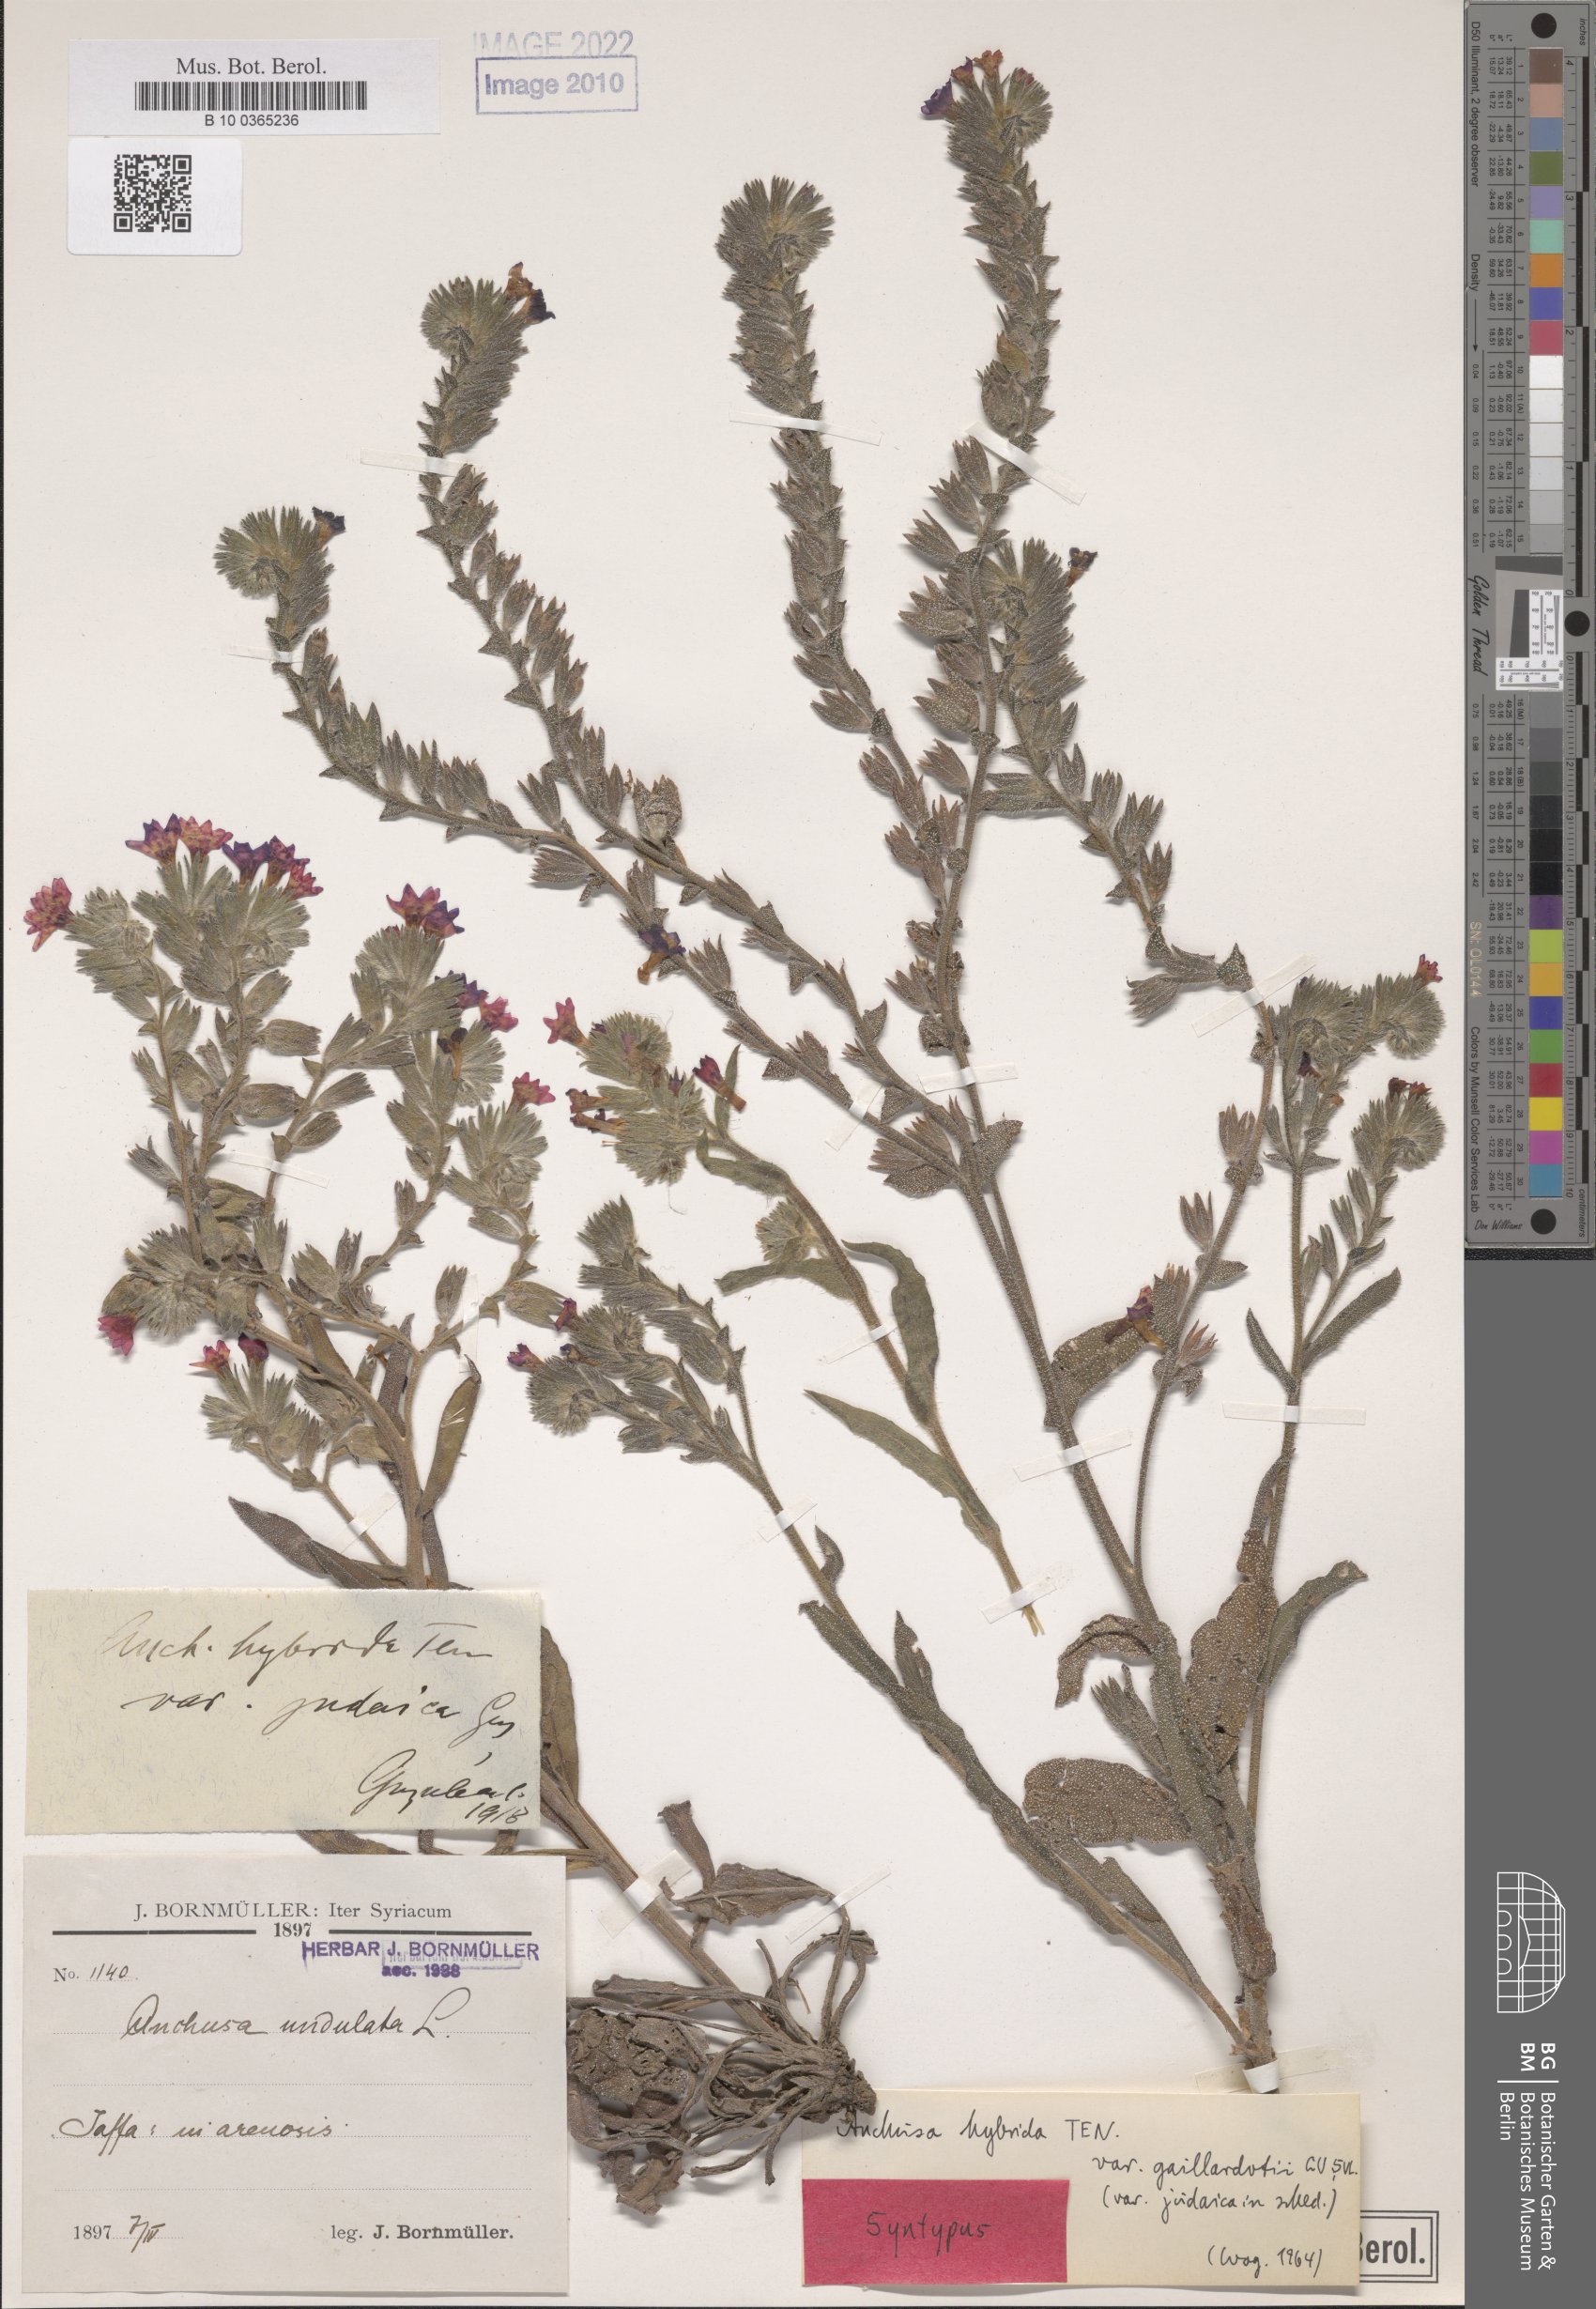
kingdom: Plantae
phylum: Tracheophyta
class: Magnoliopsida
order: Boraginales
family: Boraginaceae
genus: Anchusa
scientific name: Anchusa hybrida
